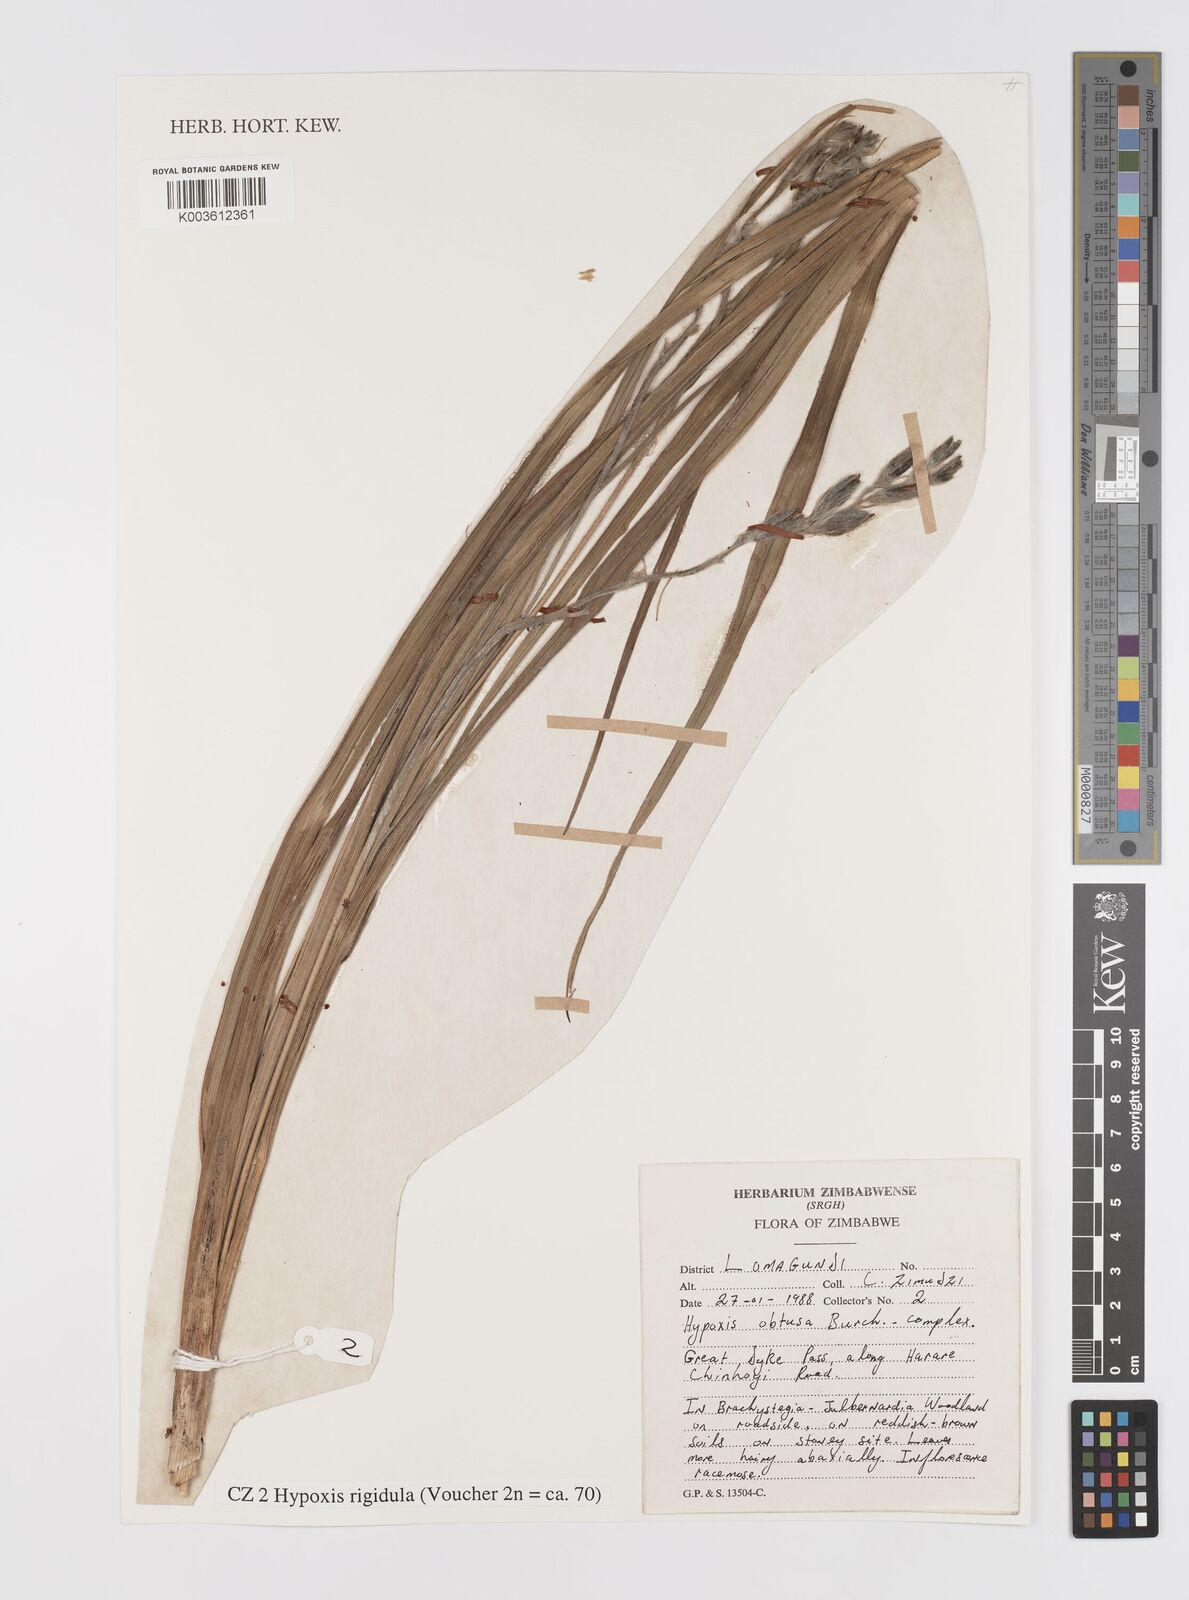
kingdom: Plantae
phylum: Tracheophyta
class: Liliopsida
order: Asparagales
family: Hypoxidaceae
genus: Hypoxis
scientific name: Hypoxis rigidula
